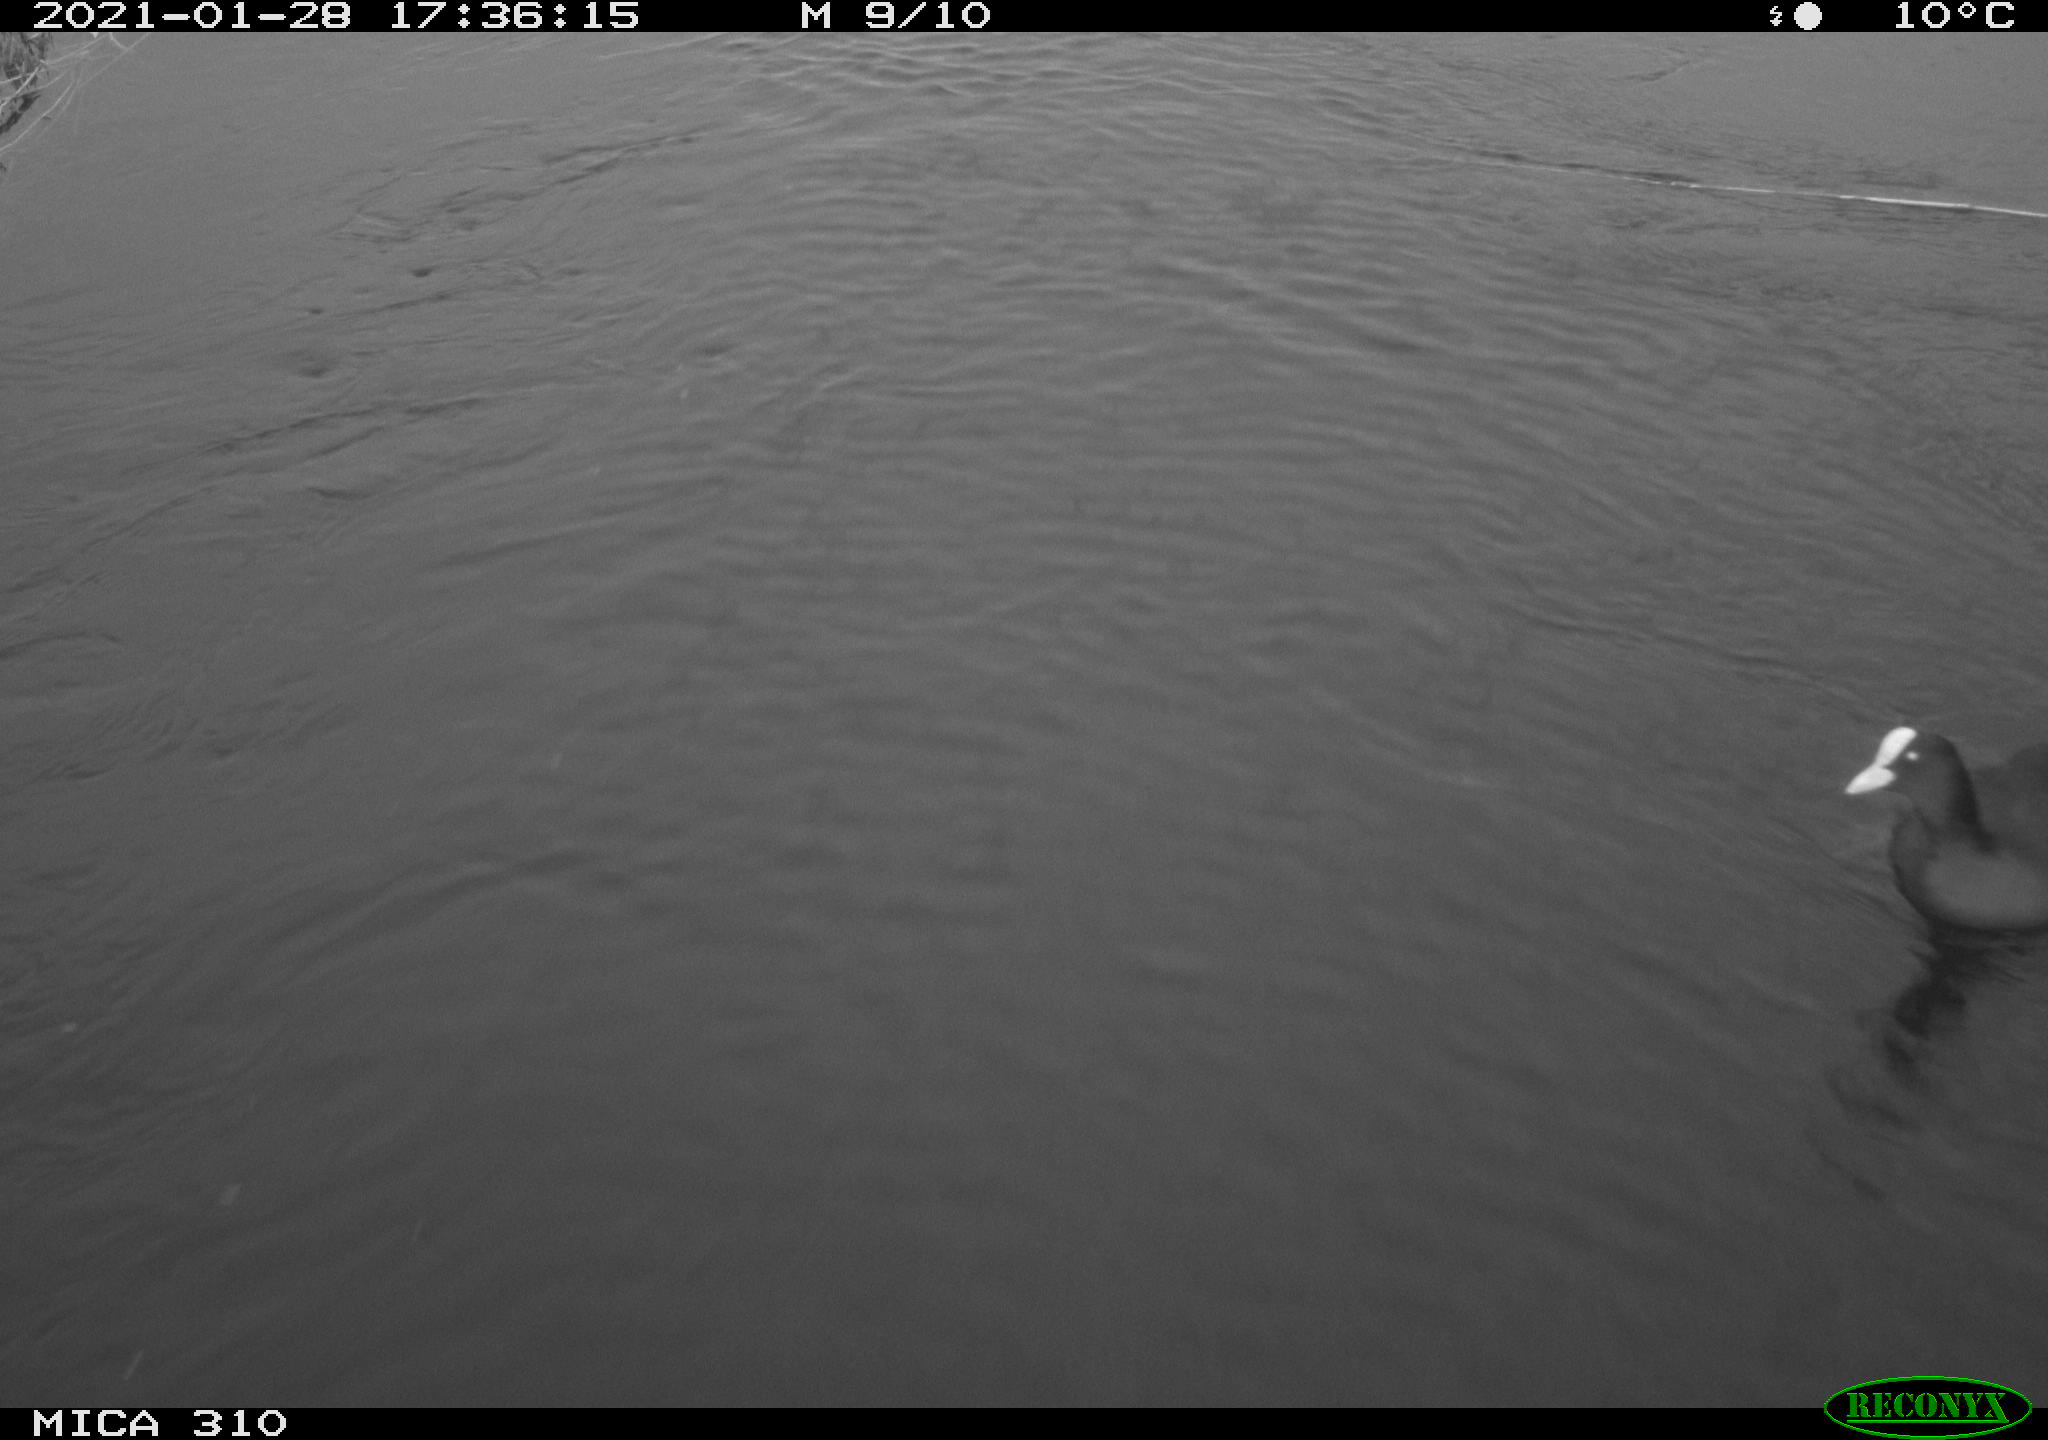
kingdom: Animalia
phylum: Chordata
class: Aves
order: Gruiformes
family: Rallidae
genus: Fulica
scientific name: Fulica atra
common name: Eurasian coot
